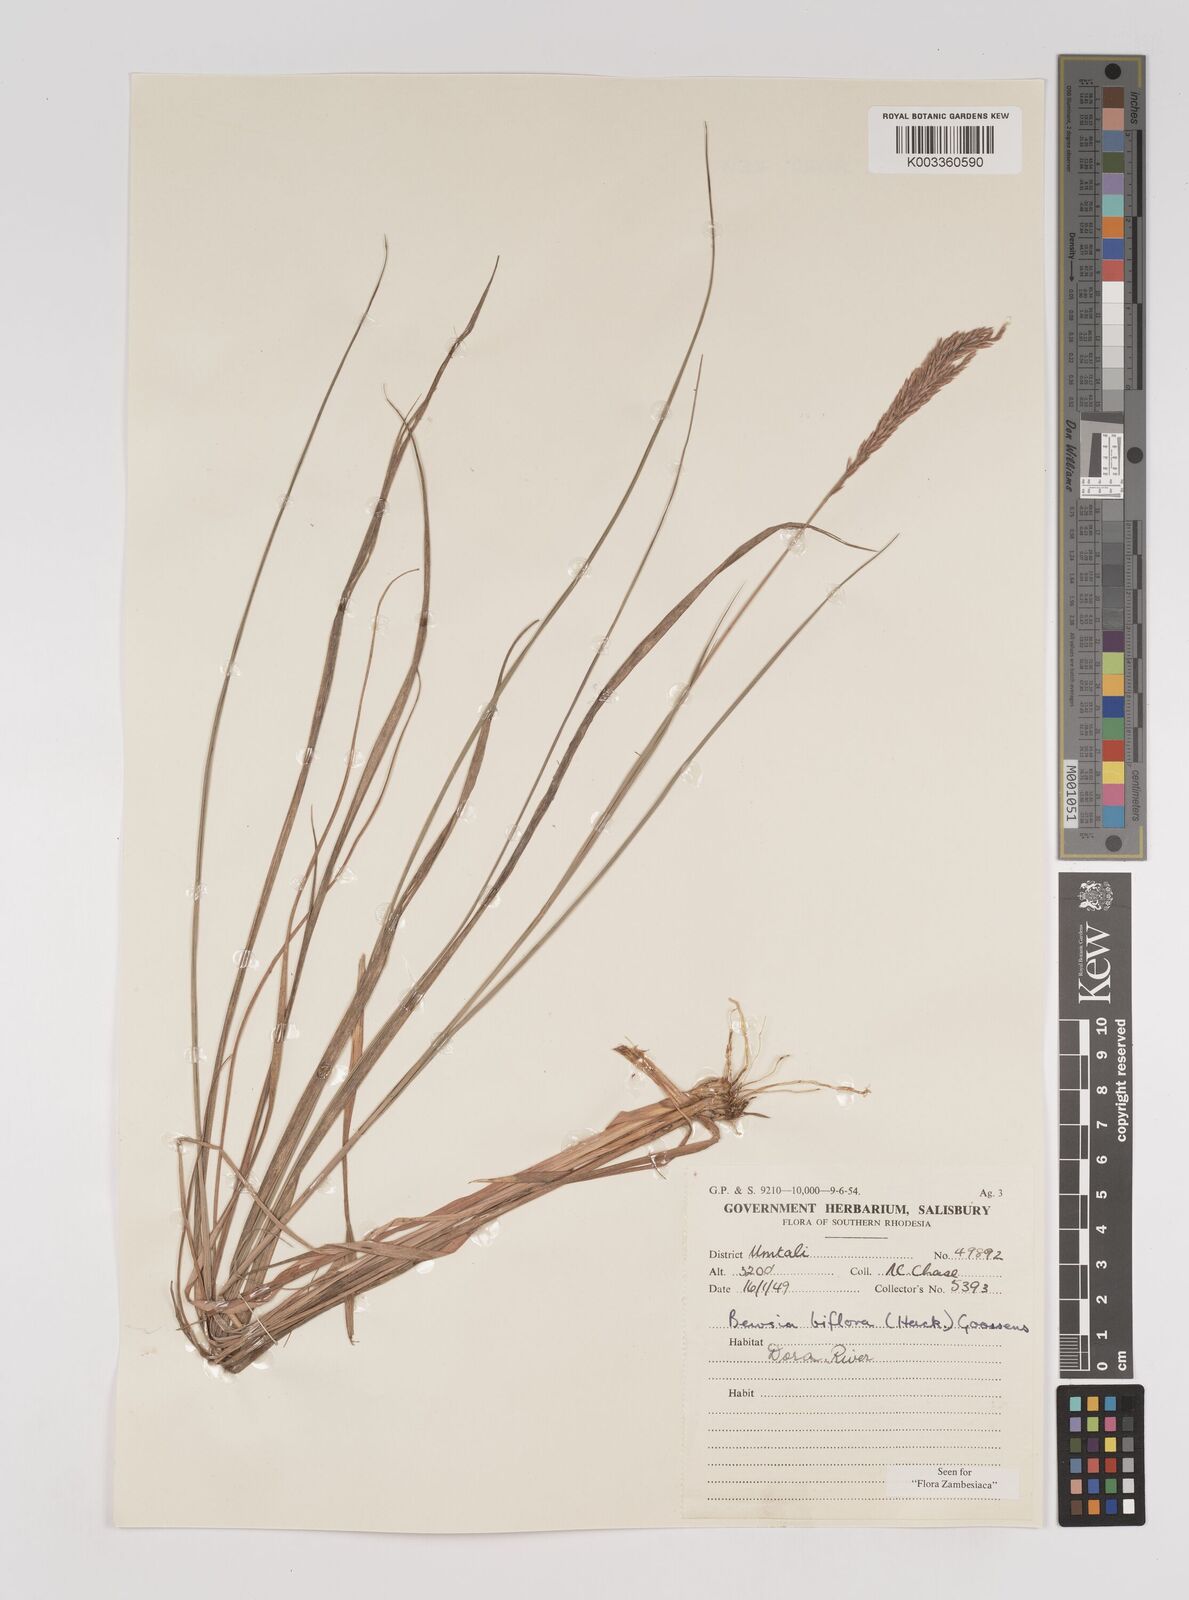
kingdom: Plantae
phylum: Tracheophyta
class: Liliopsida
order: Poales
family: Poaceae
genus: Bewsia
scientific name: Bewsia biflora
